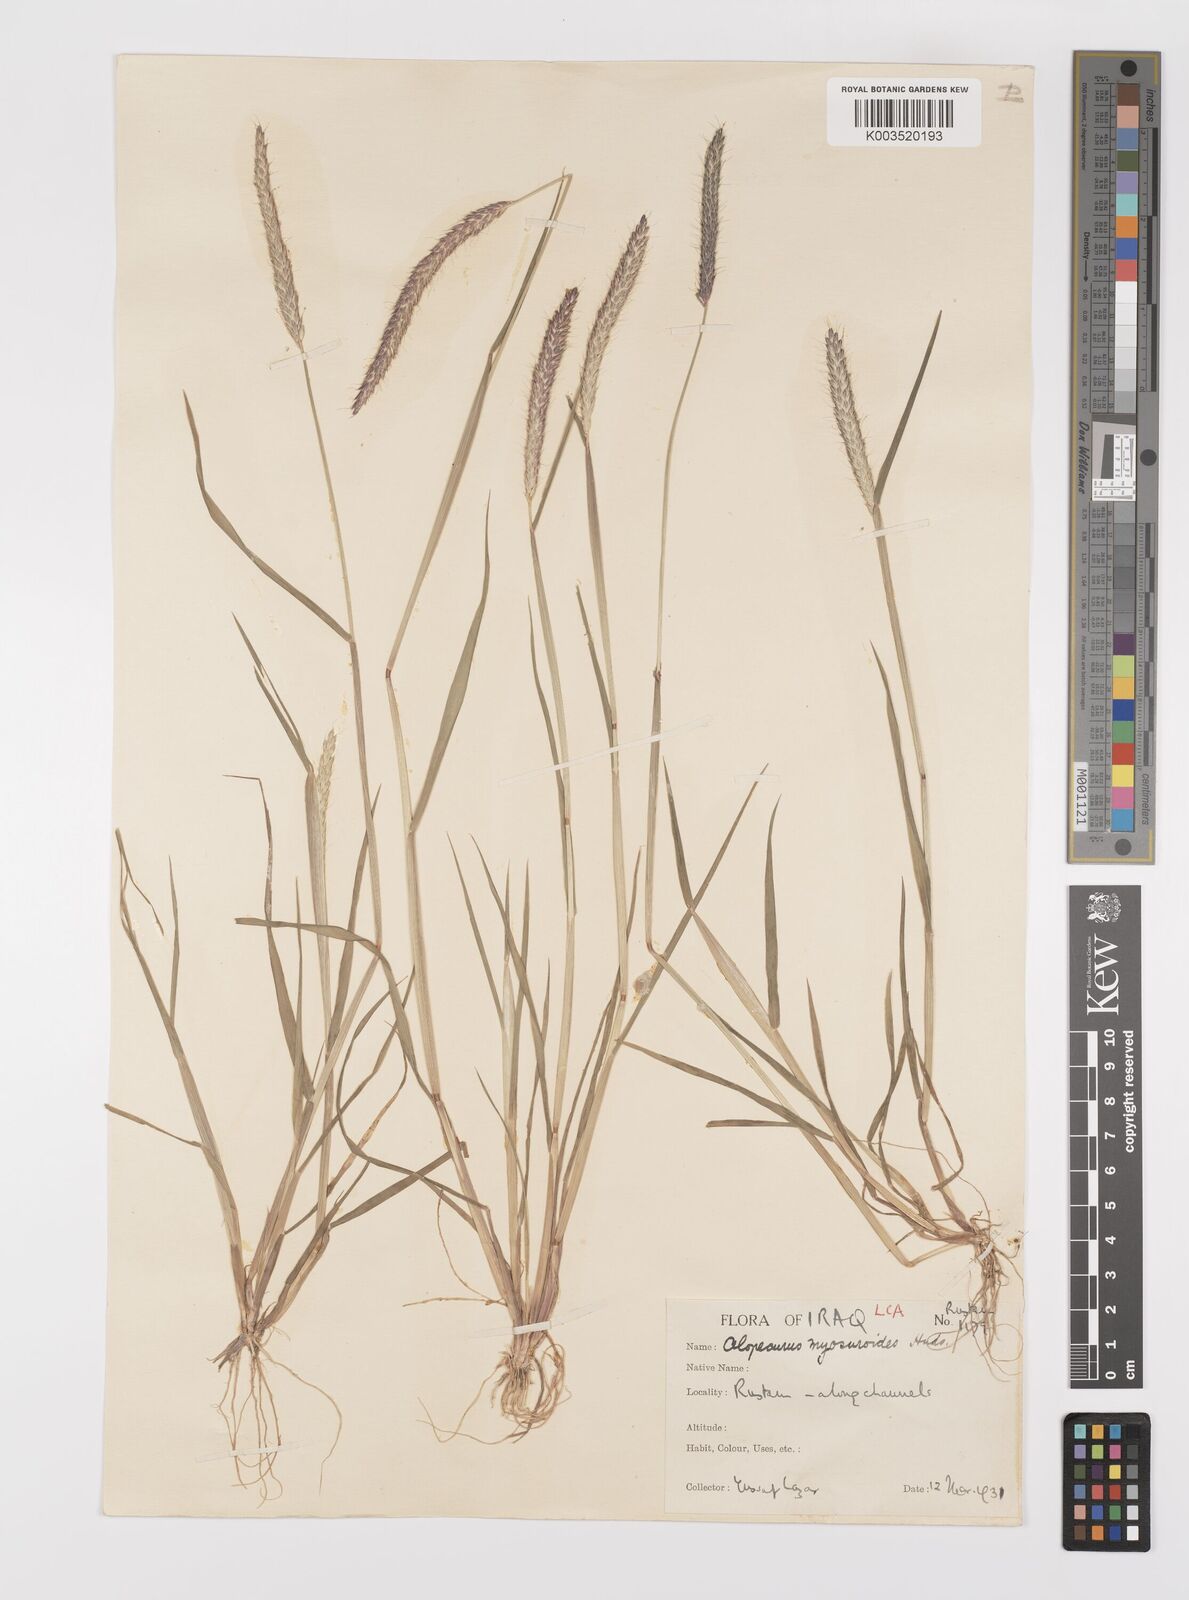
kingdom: Plantae
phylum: Tracheophyta
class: Liliopsida
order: Poales
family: Poaceae
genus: Alopecurus
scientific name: Alopecurus myosuroides
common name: Black-grass
